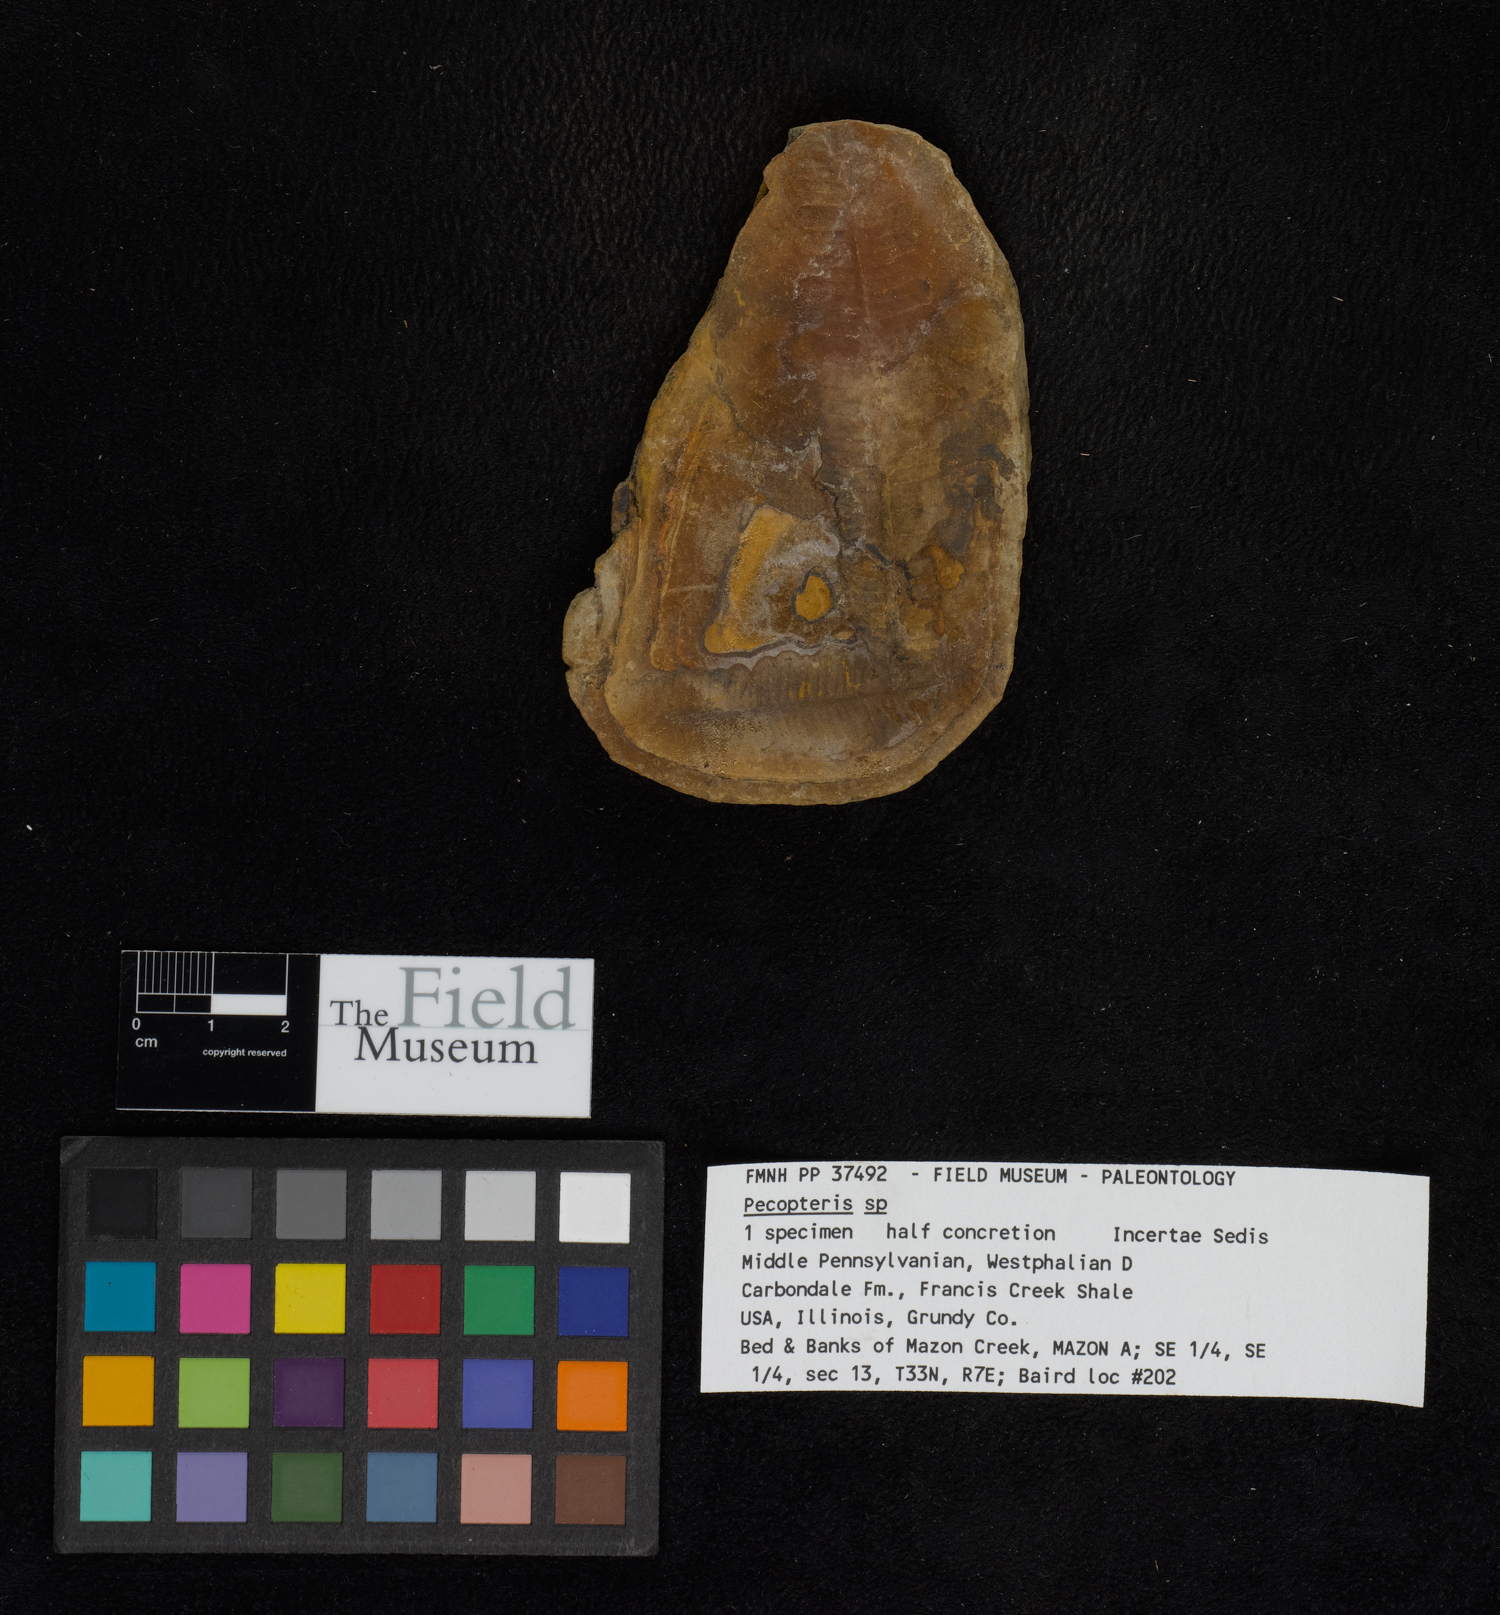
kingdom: Plantae
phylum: Tracheophyta
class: Polypodiopsida
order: Marattiales
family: Asterothecaceae
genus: Pecopteris
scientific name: Pecopteris
